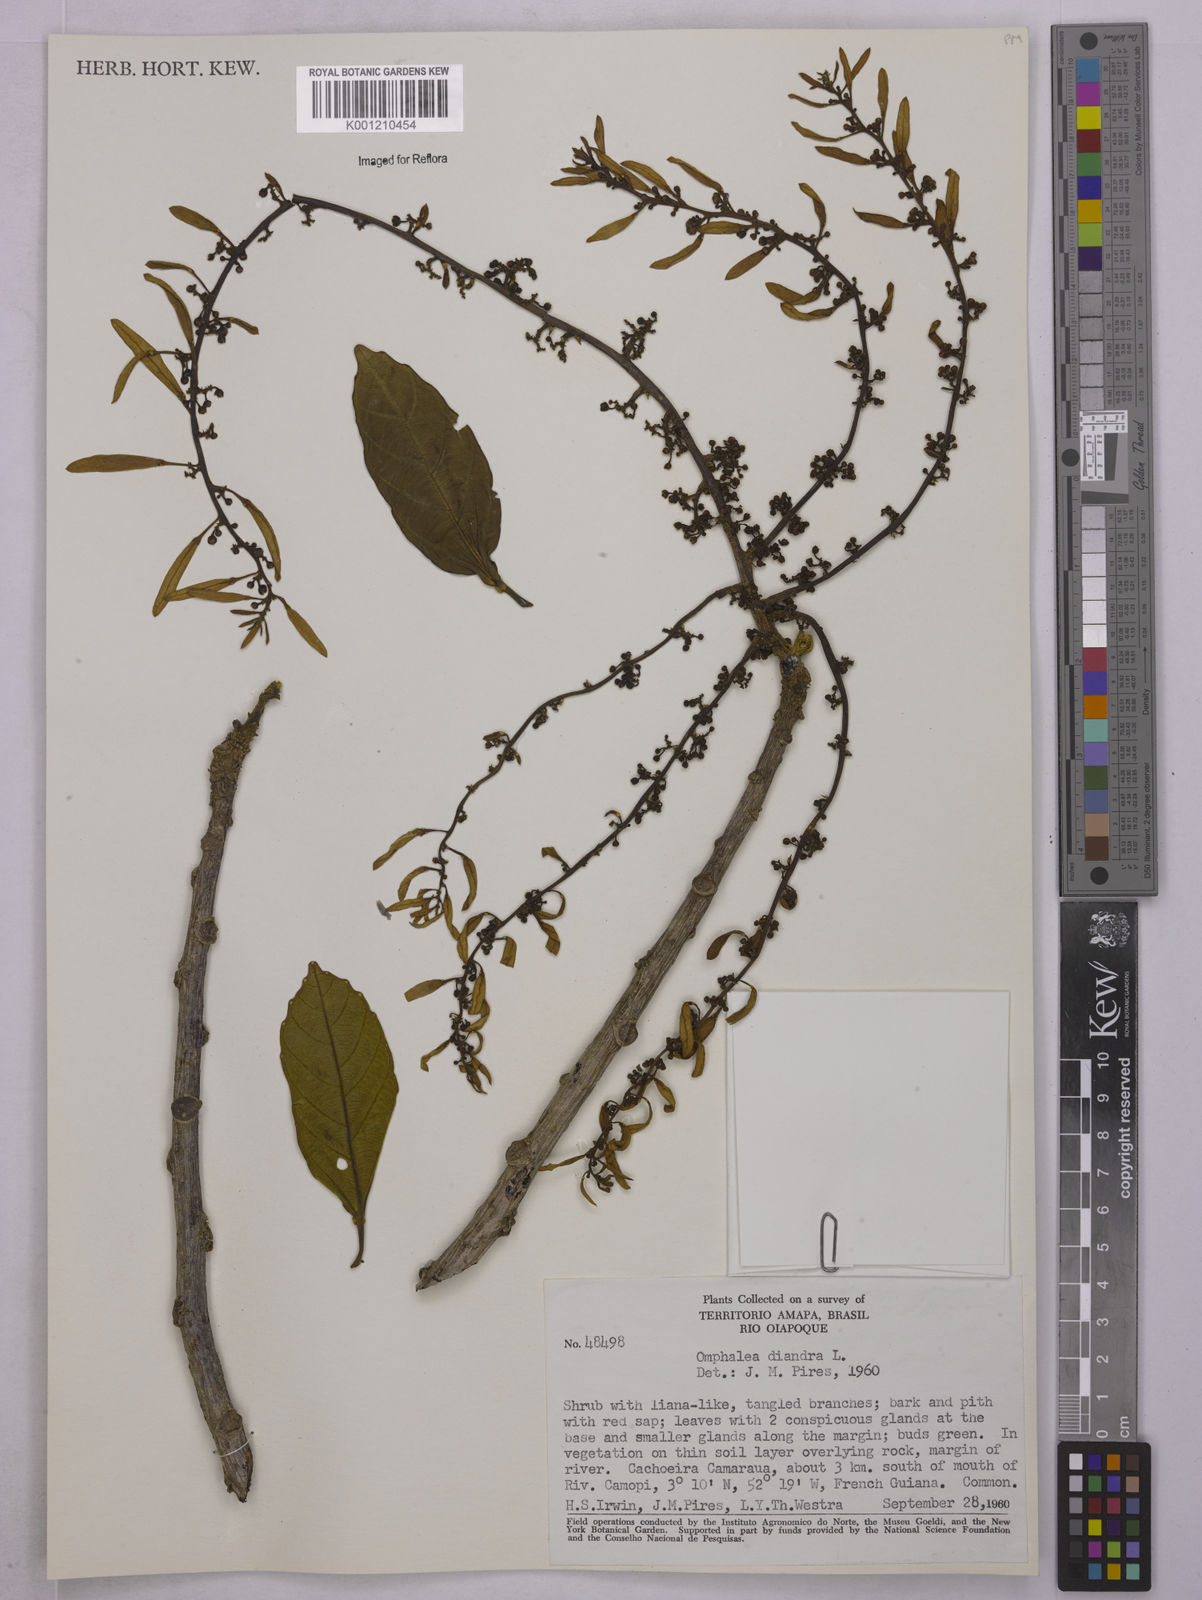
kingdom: Plantae
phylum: Tracheophyta
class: Magnoliopsida
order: Malpighiales
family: Euphorbiaceae
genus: Omphalea
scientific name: Omphalea diandra
